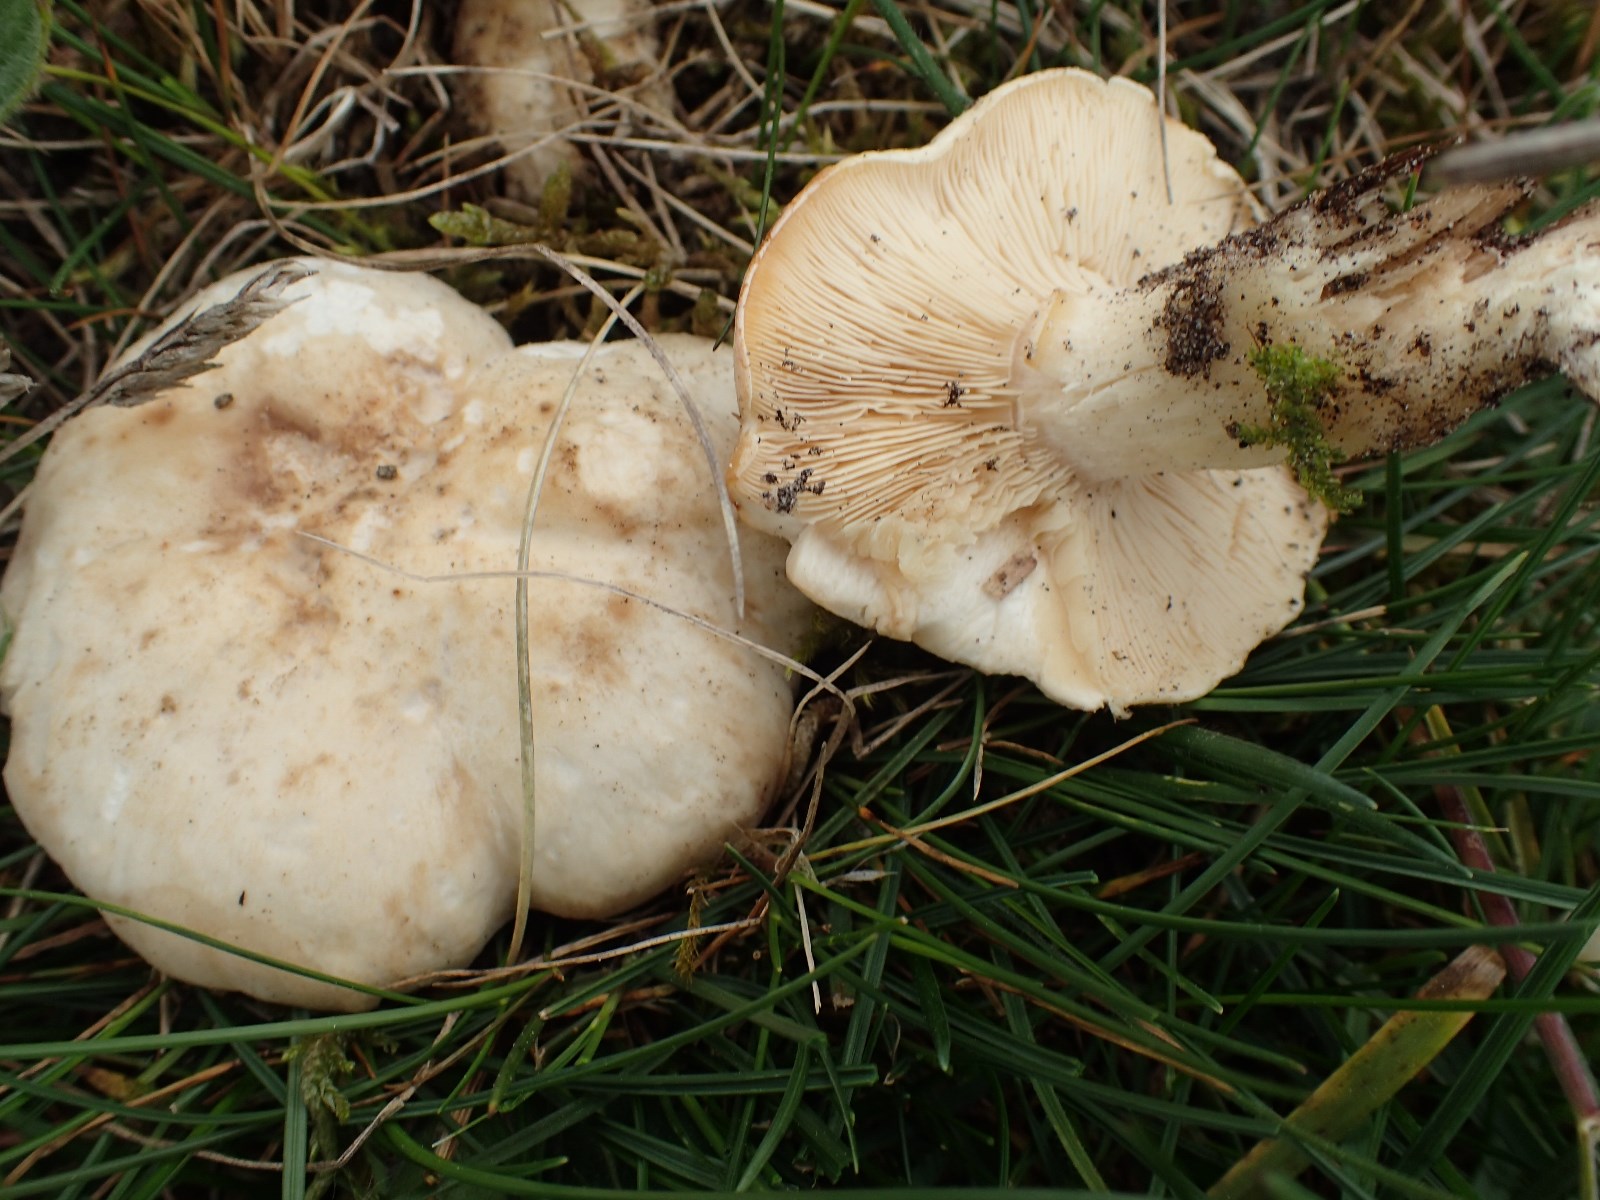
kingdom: Fungi
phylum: Basidiomycota
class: Agaricomycetes
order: Agaricales
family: Lyophyllaceae
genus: Calocybe
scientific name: Calocybe gambosa
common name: vårmusseron
